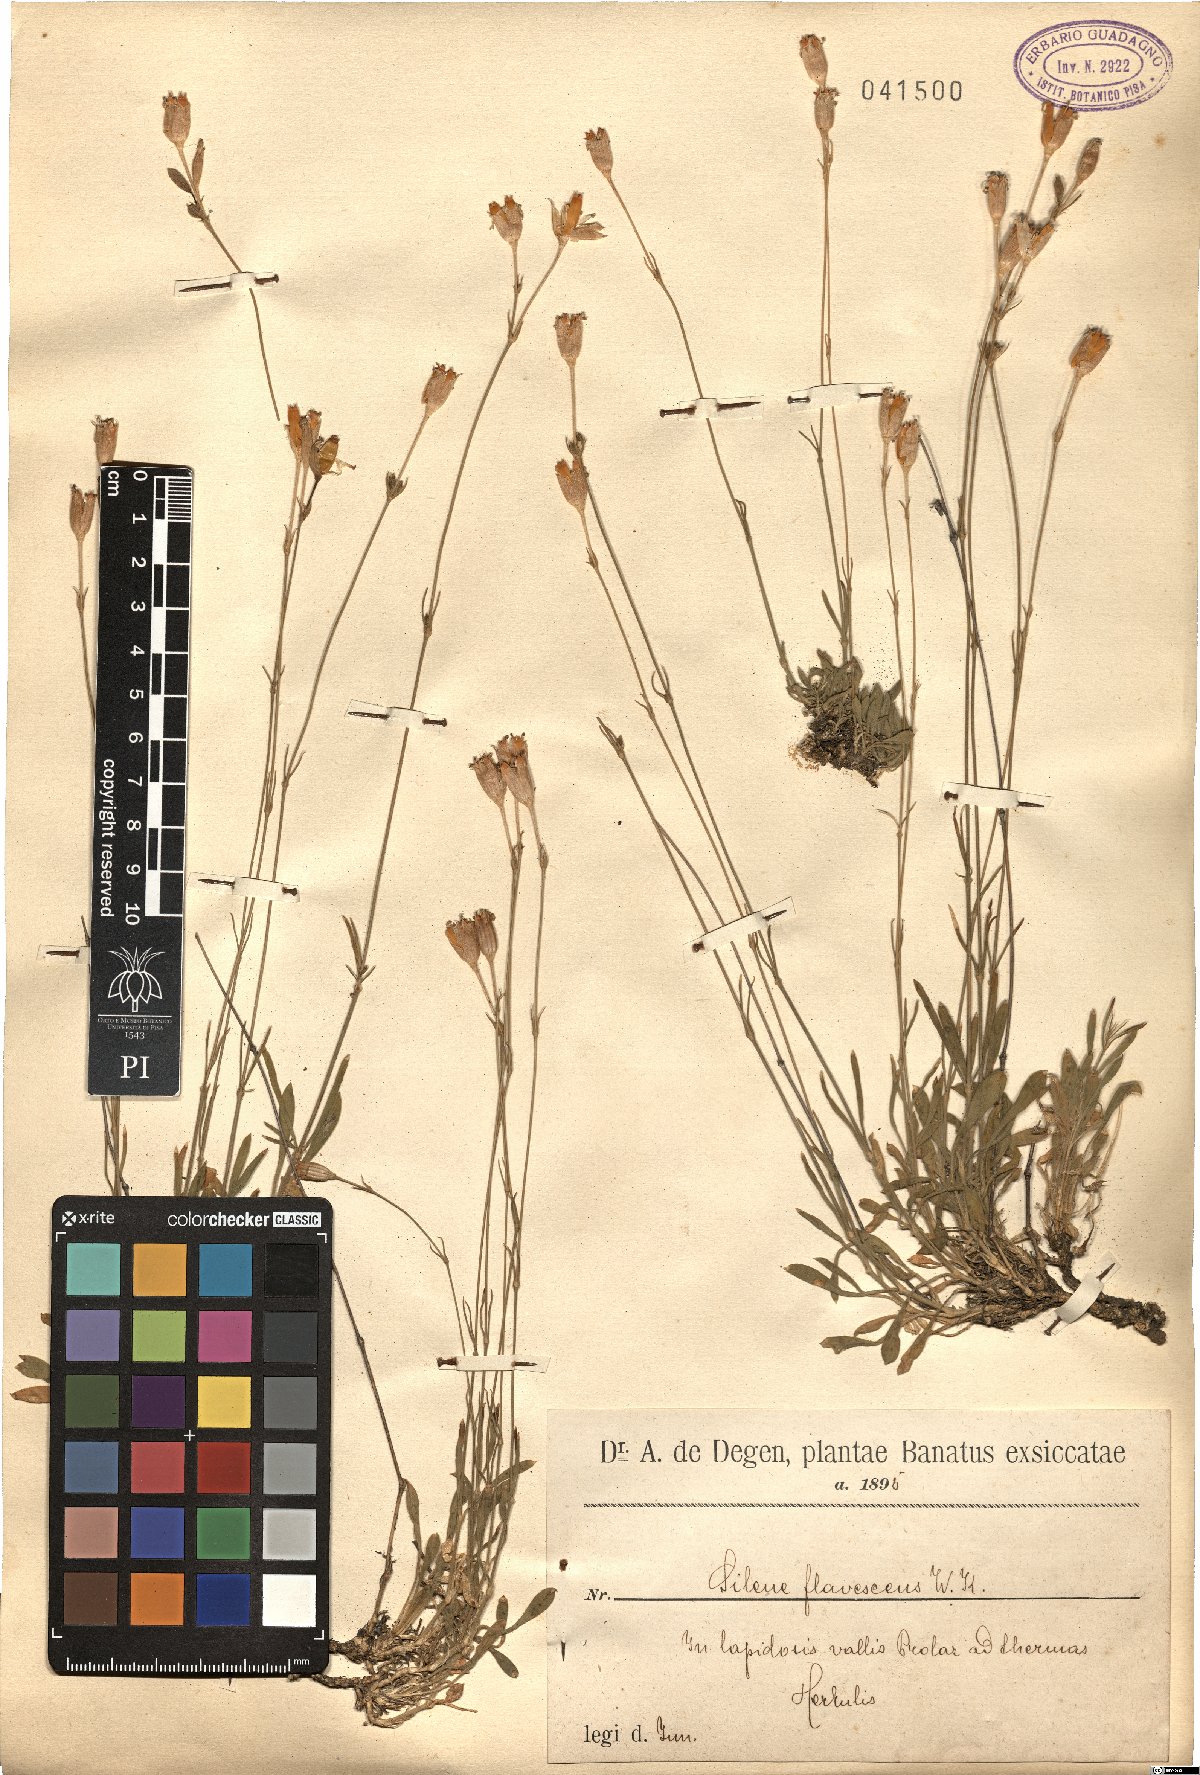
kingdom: Plantae
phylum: Tracheophyta
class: Magnoliopsida
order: Caryophyllales
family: Caryophyllaceae
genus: Silene
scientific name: Silene flavescens
